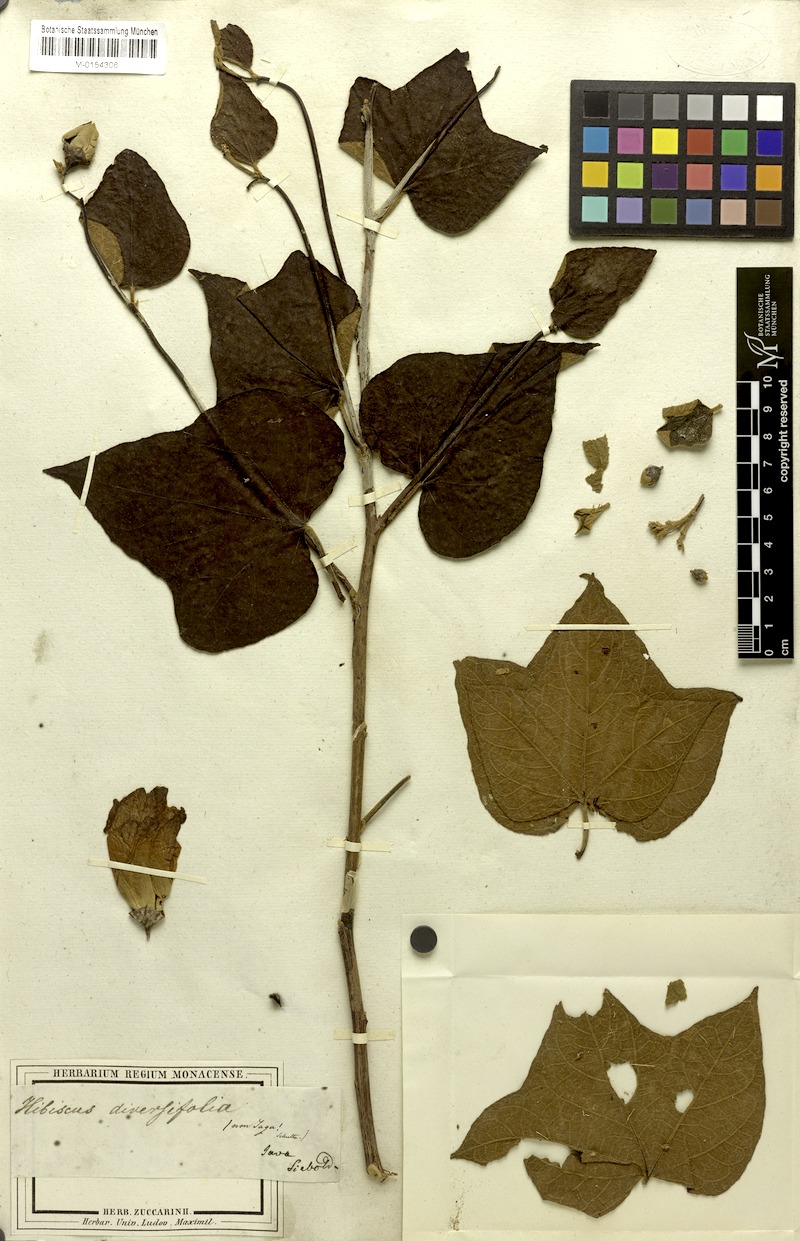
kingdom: Plantae
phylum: Tracheophyta
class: Magnoliopsida
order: Malvales
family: Malvaceae
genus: Thespesia
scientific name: Thespesia lampas
